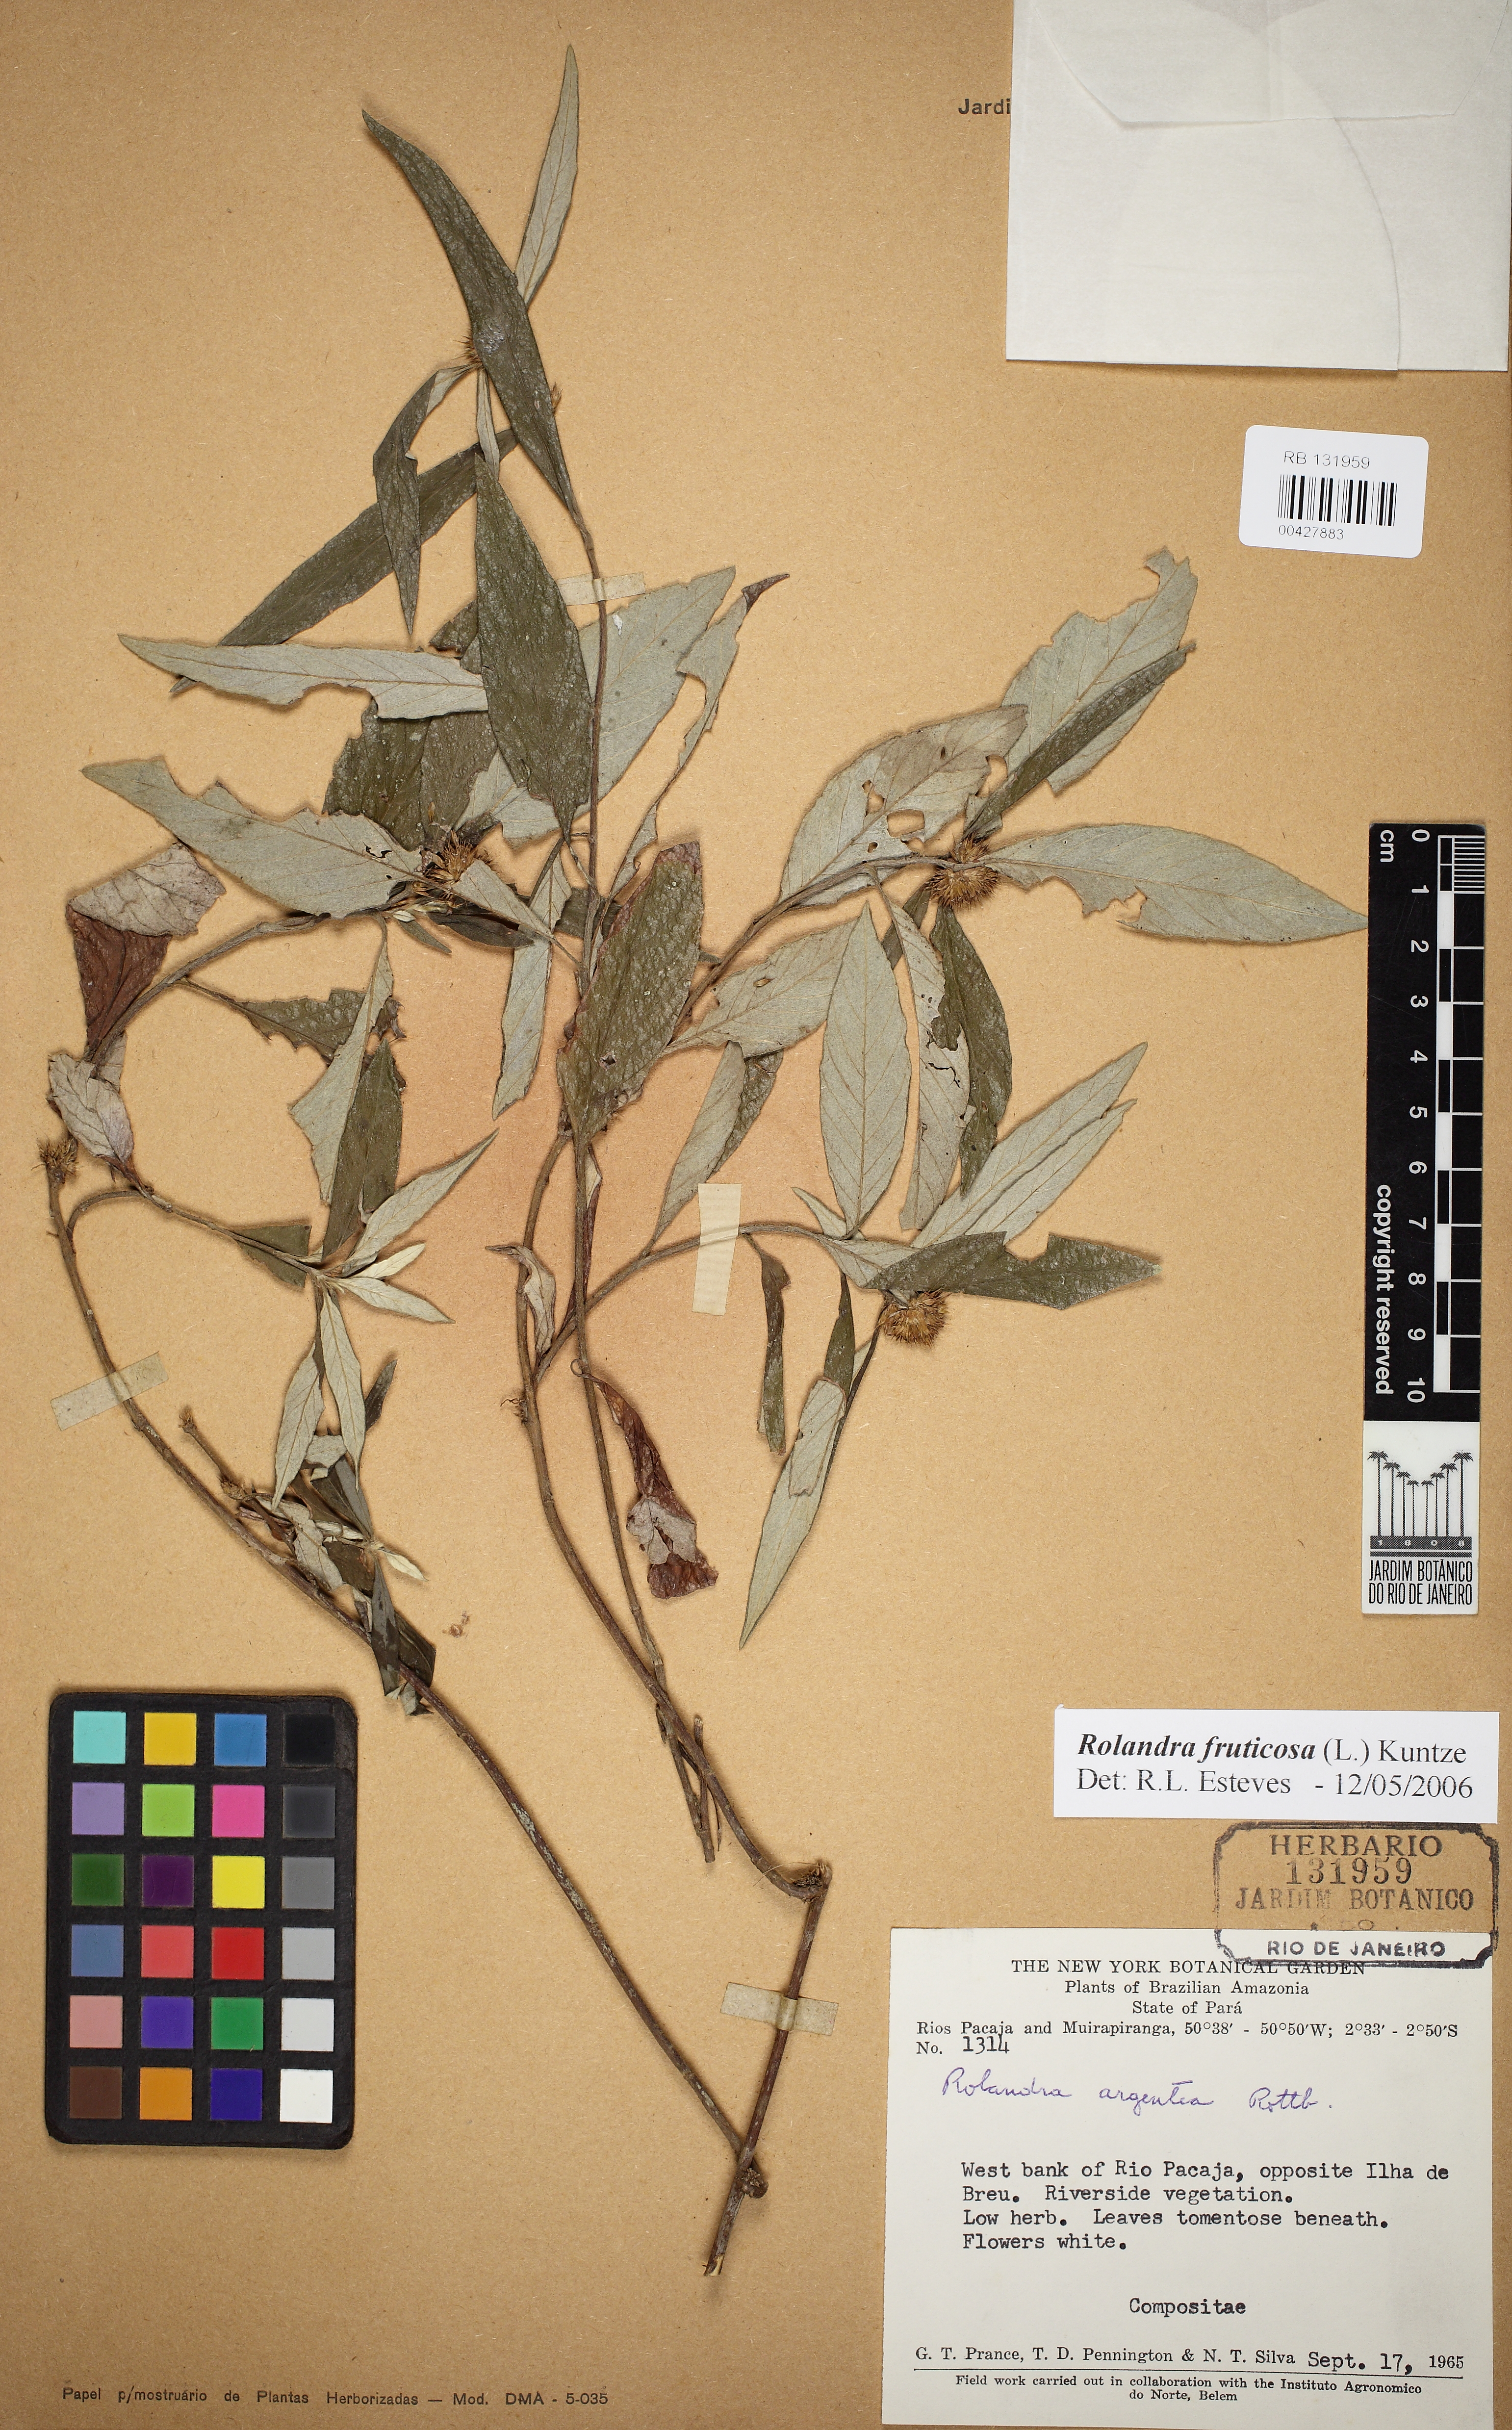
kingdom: Plantae
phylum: Tracheophyta
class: Magnoliopsida
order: Asterales
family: Asteraceae
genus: Rolandra
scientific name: Rolandra fruticosa
